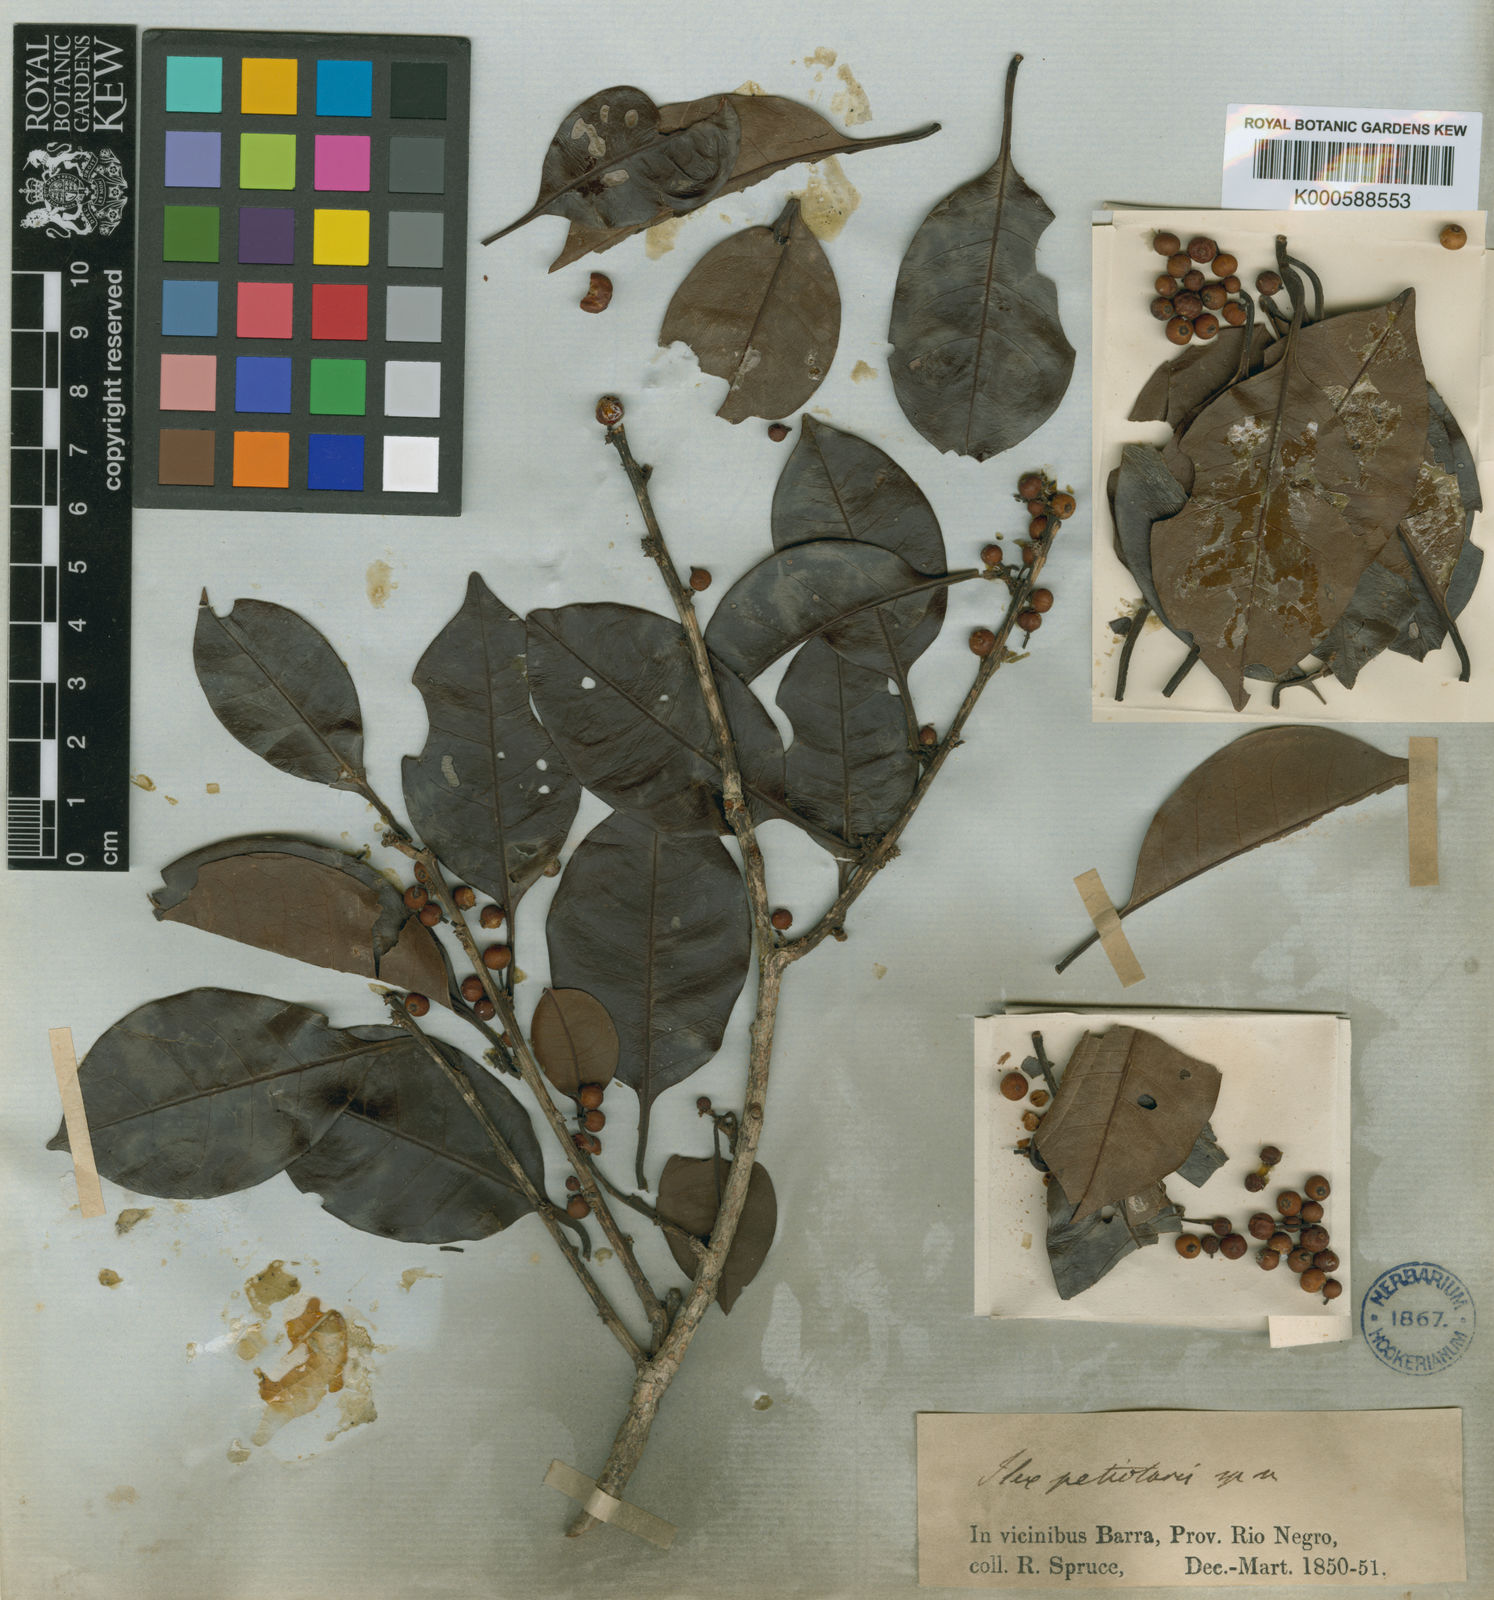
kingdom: Plantae
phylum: Tracheophyta
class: Magnoliopsida
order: Aquifoliales
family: Aquifoliaceae
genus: Ilex
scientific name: Ilex petiolaris
